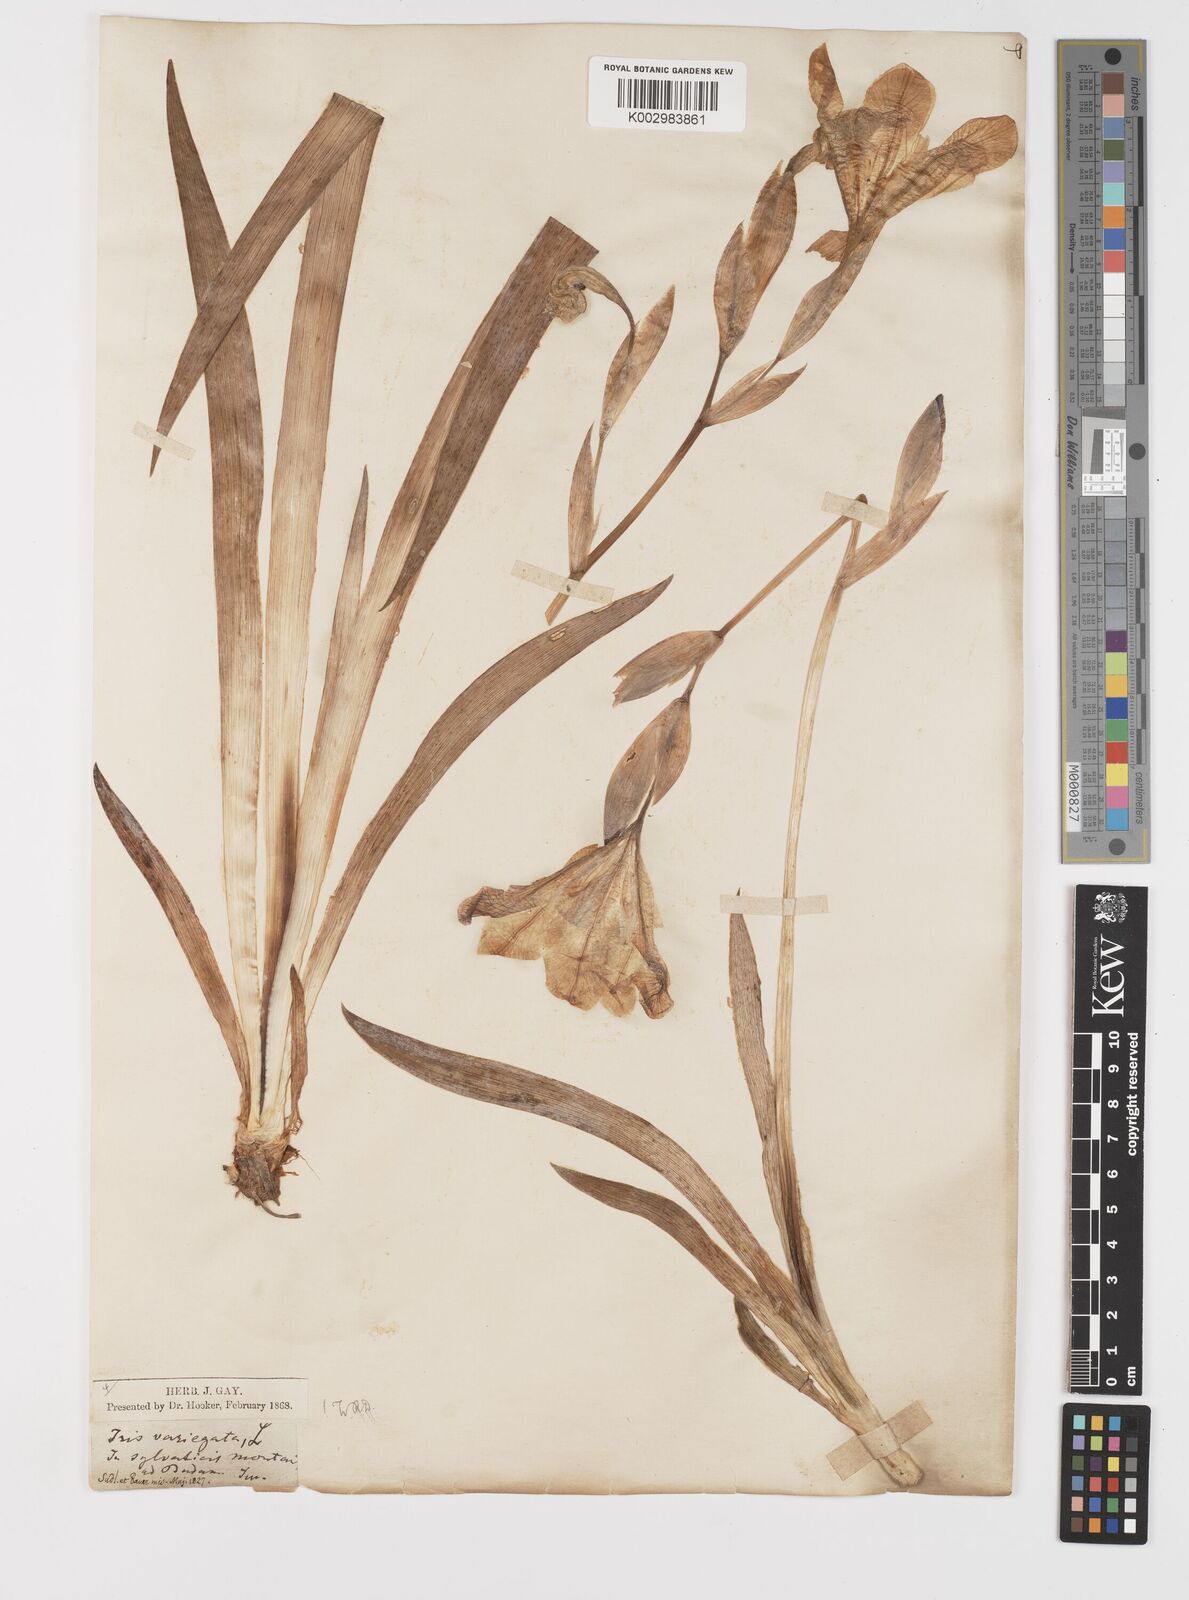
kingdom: Plantae
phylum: Tracheophyta
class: Liliopsida
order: Asparagales
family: Iridaceae
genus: Iris
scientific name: Iris variegata
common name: Hungarian iris
